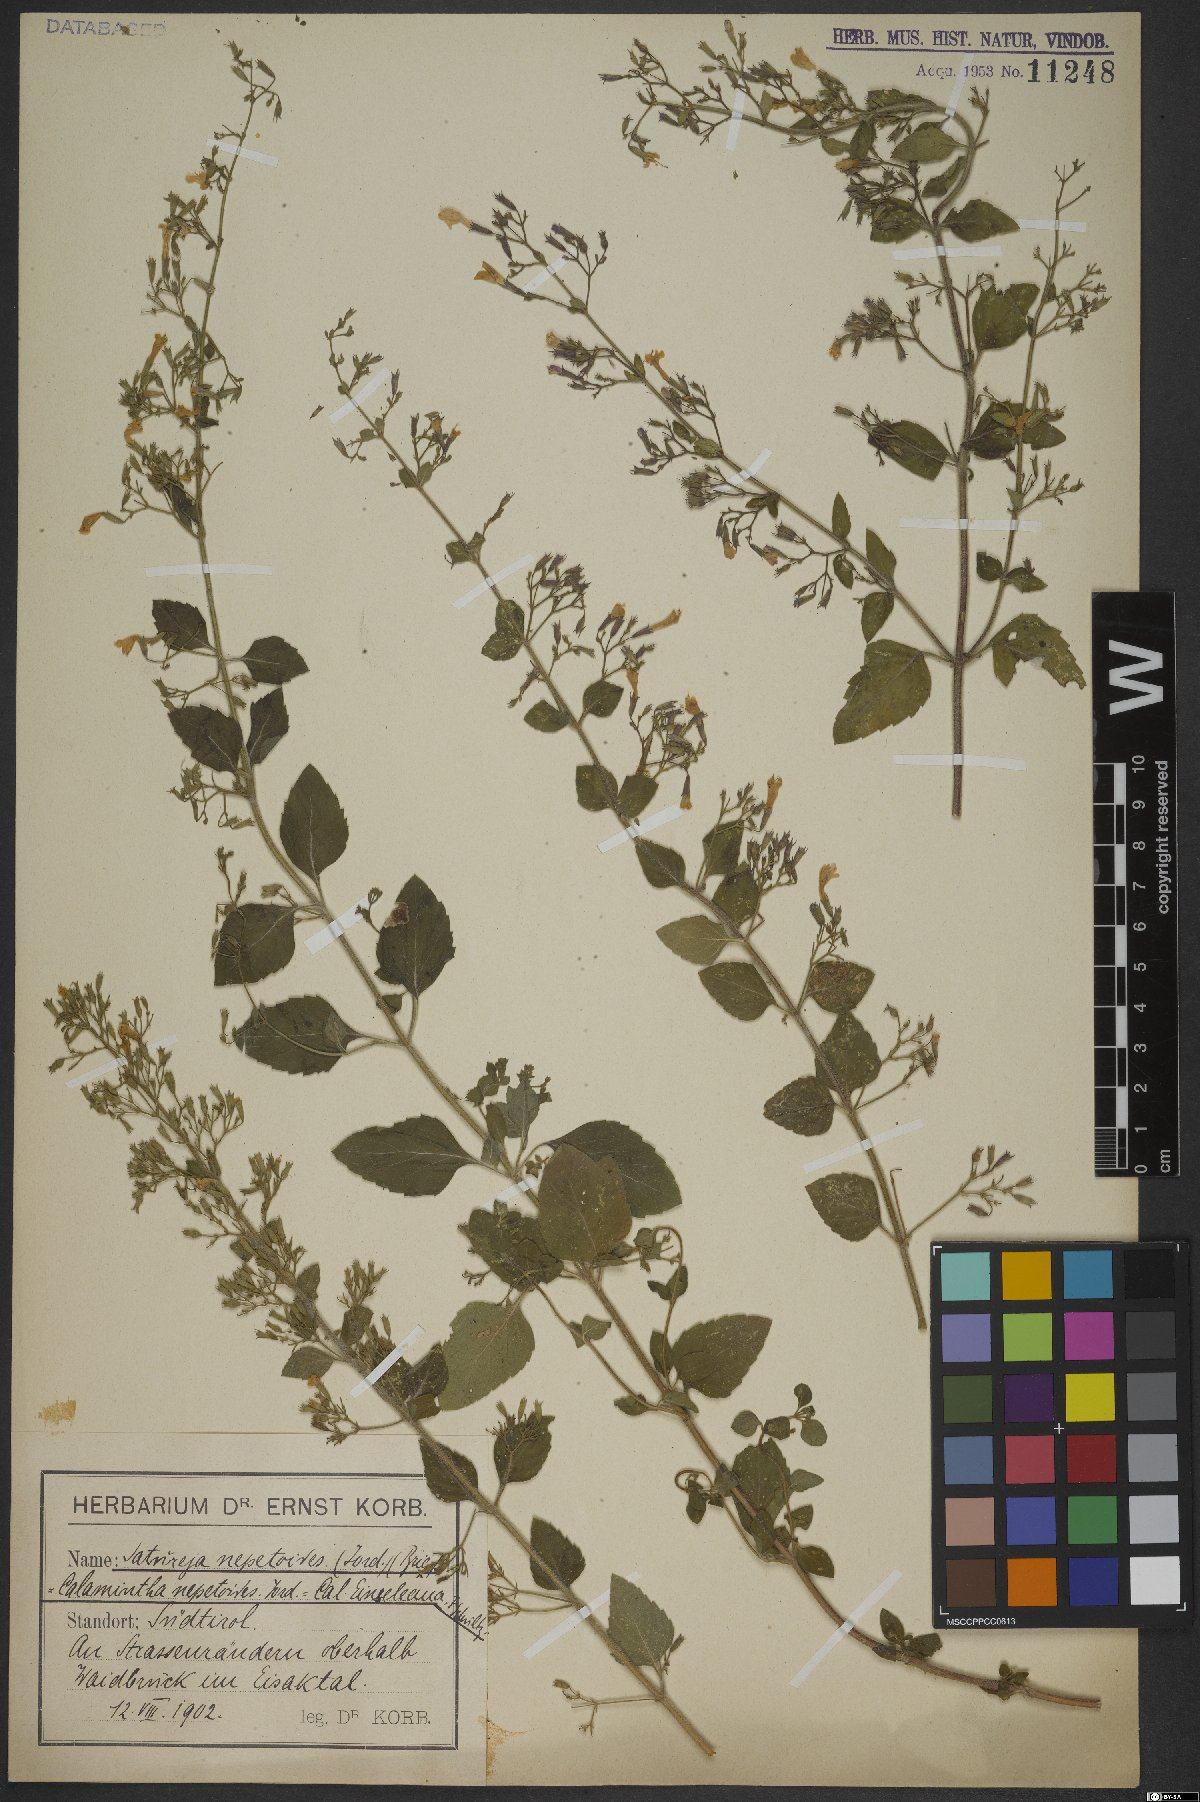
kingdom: Plantae
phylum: Tracheophyta
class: Magnoliopsida
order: Lamiales
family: Lamiaceae
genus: Clinopodium
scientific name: Clinopodium nepeta
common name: Lesser calamint
